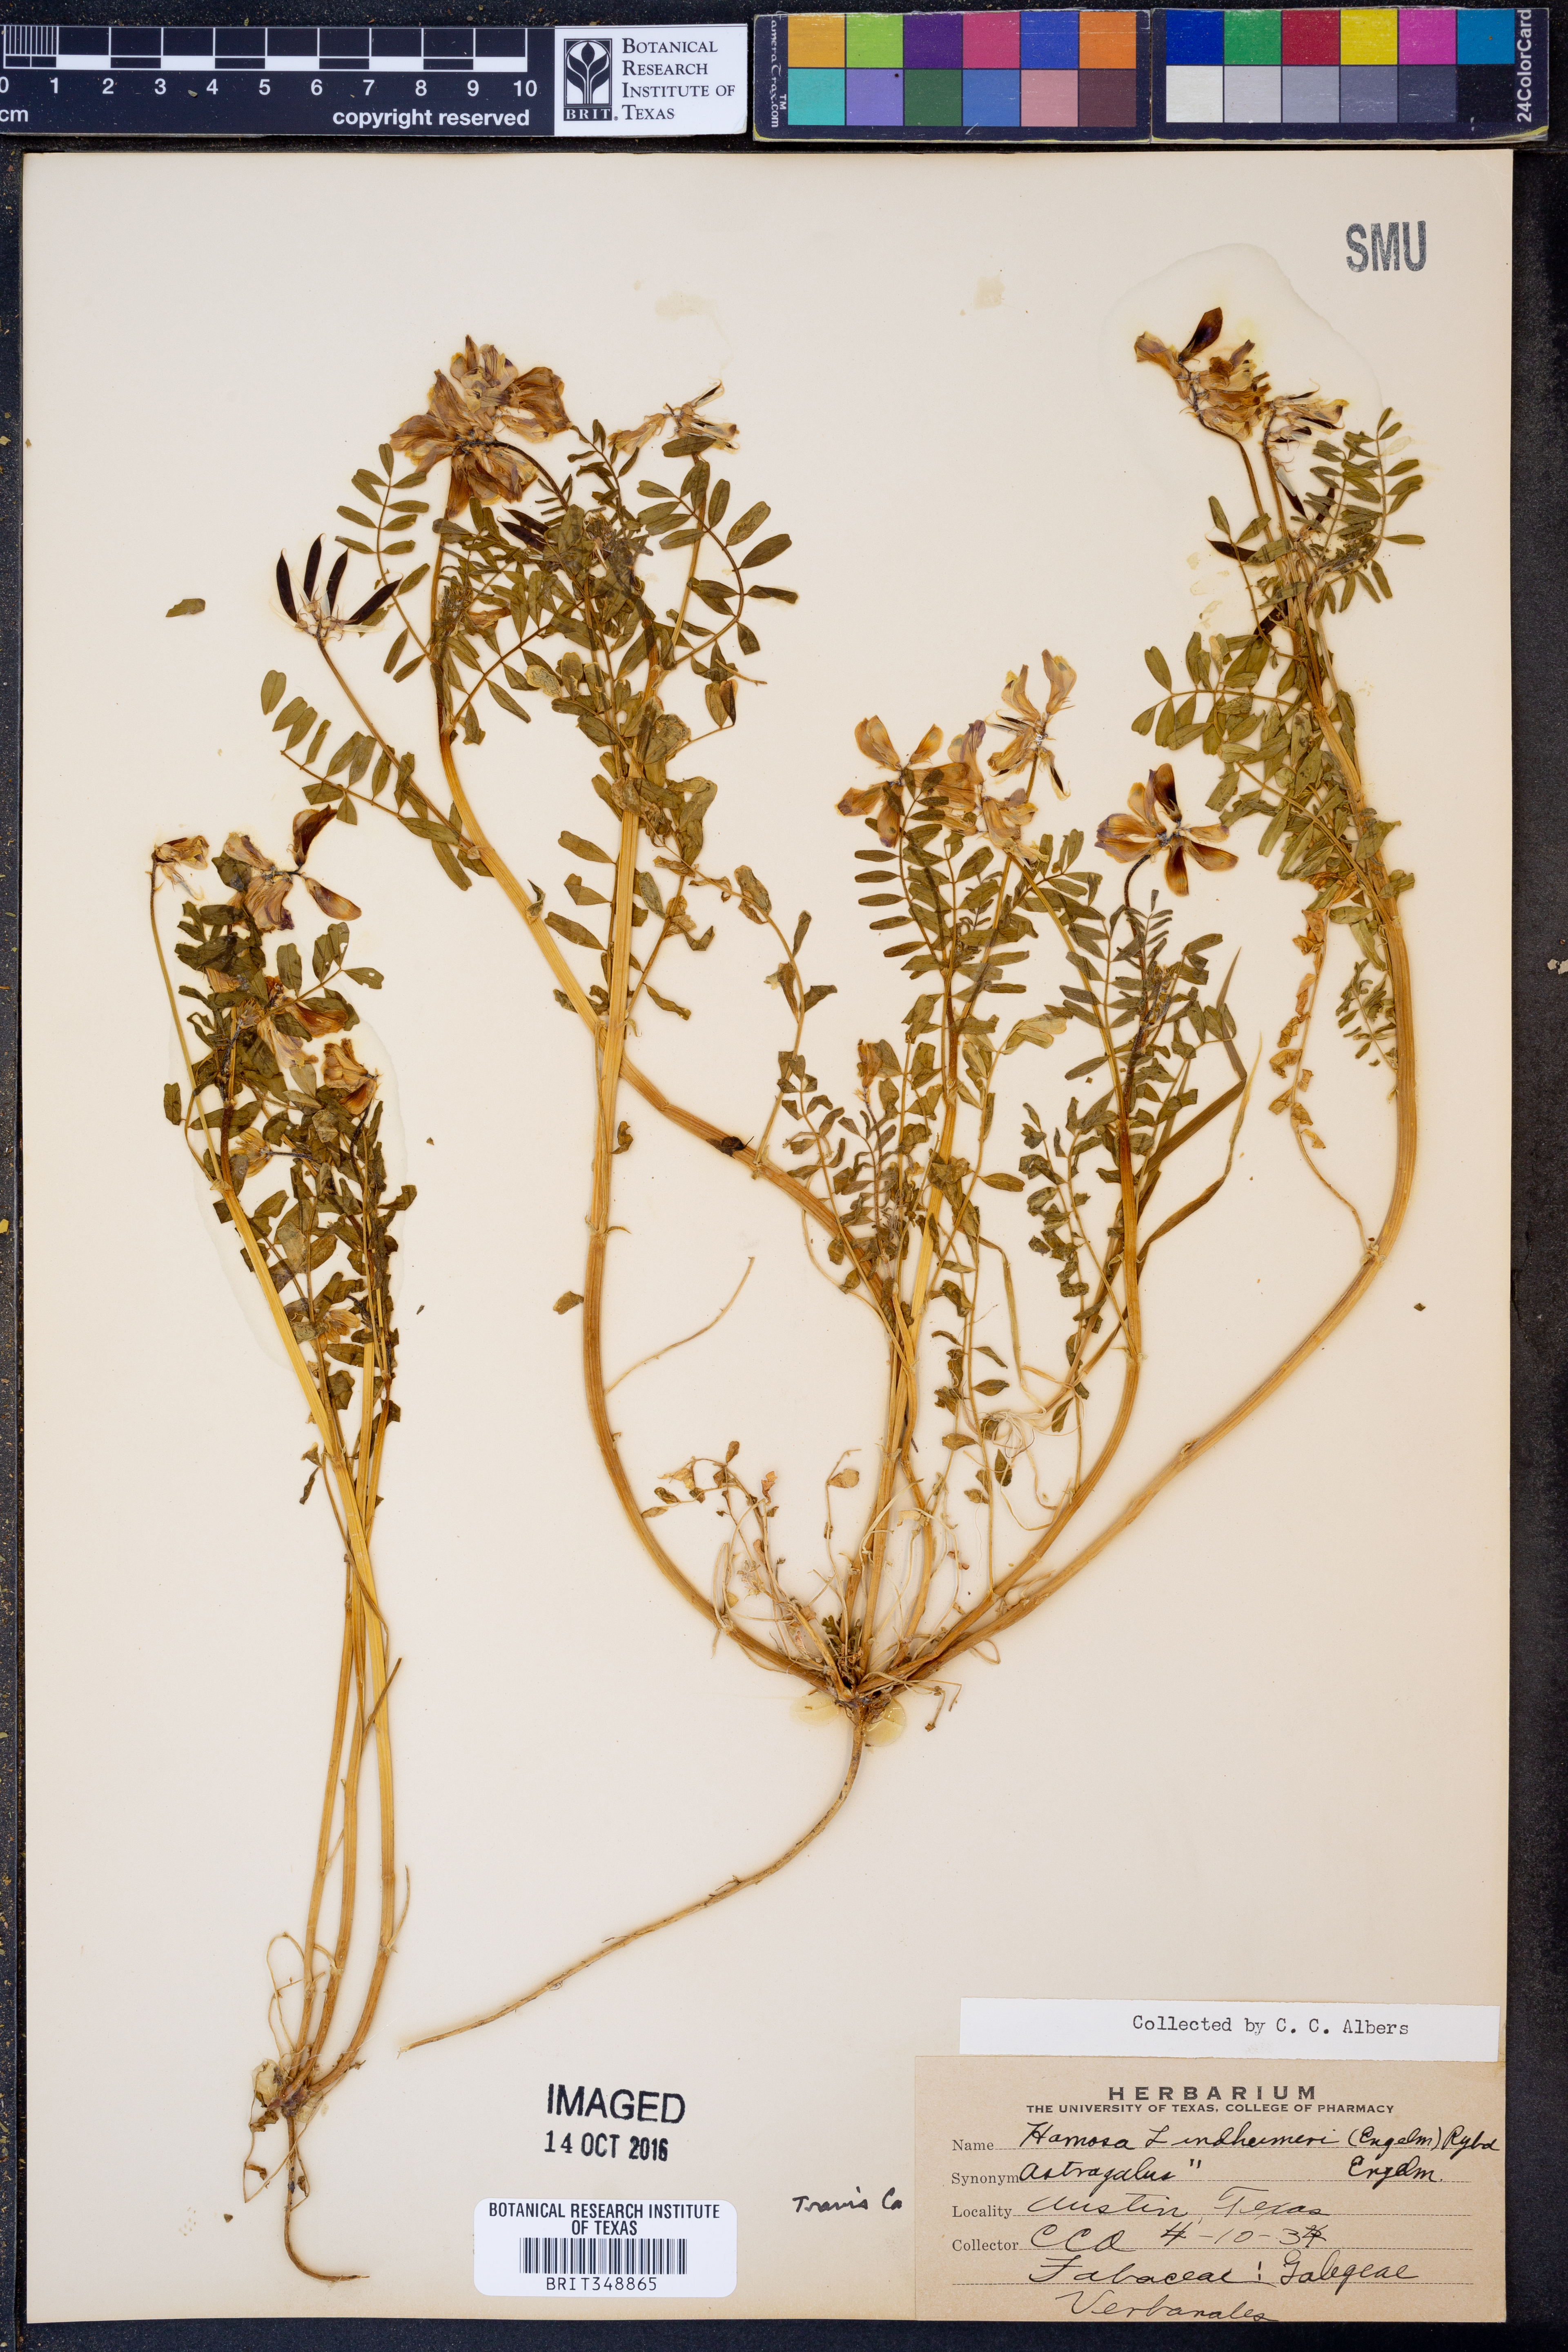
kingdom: Plantae
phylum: Tracheophyta
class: Magnoliopsida
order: Fabales
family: Fabaceae
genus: Astragalus
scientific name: Astragalus lindheimeri
